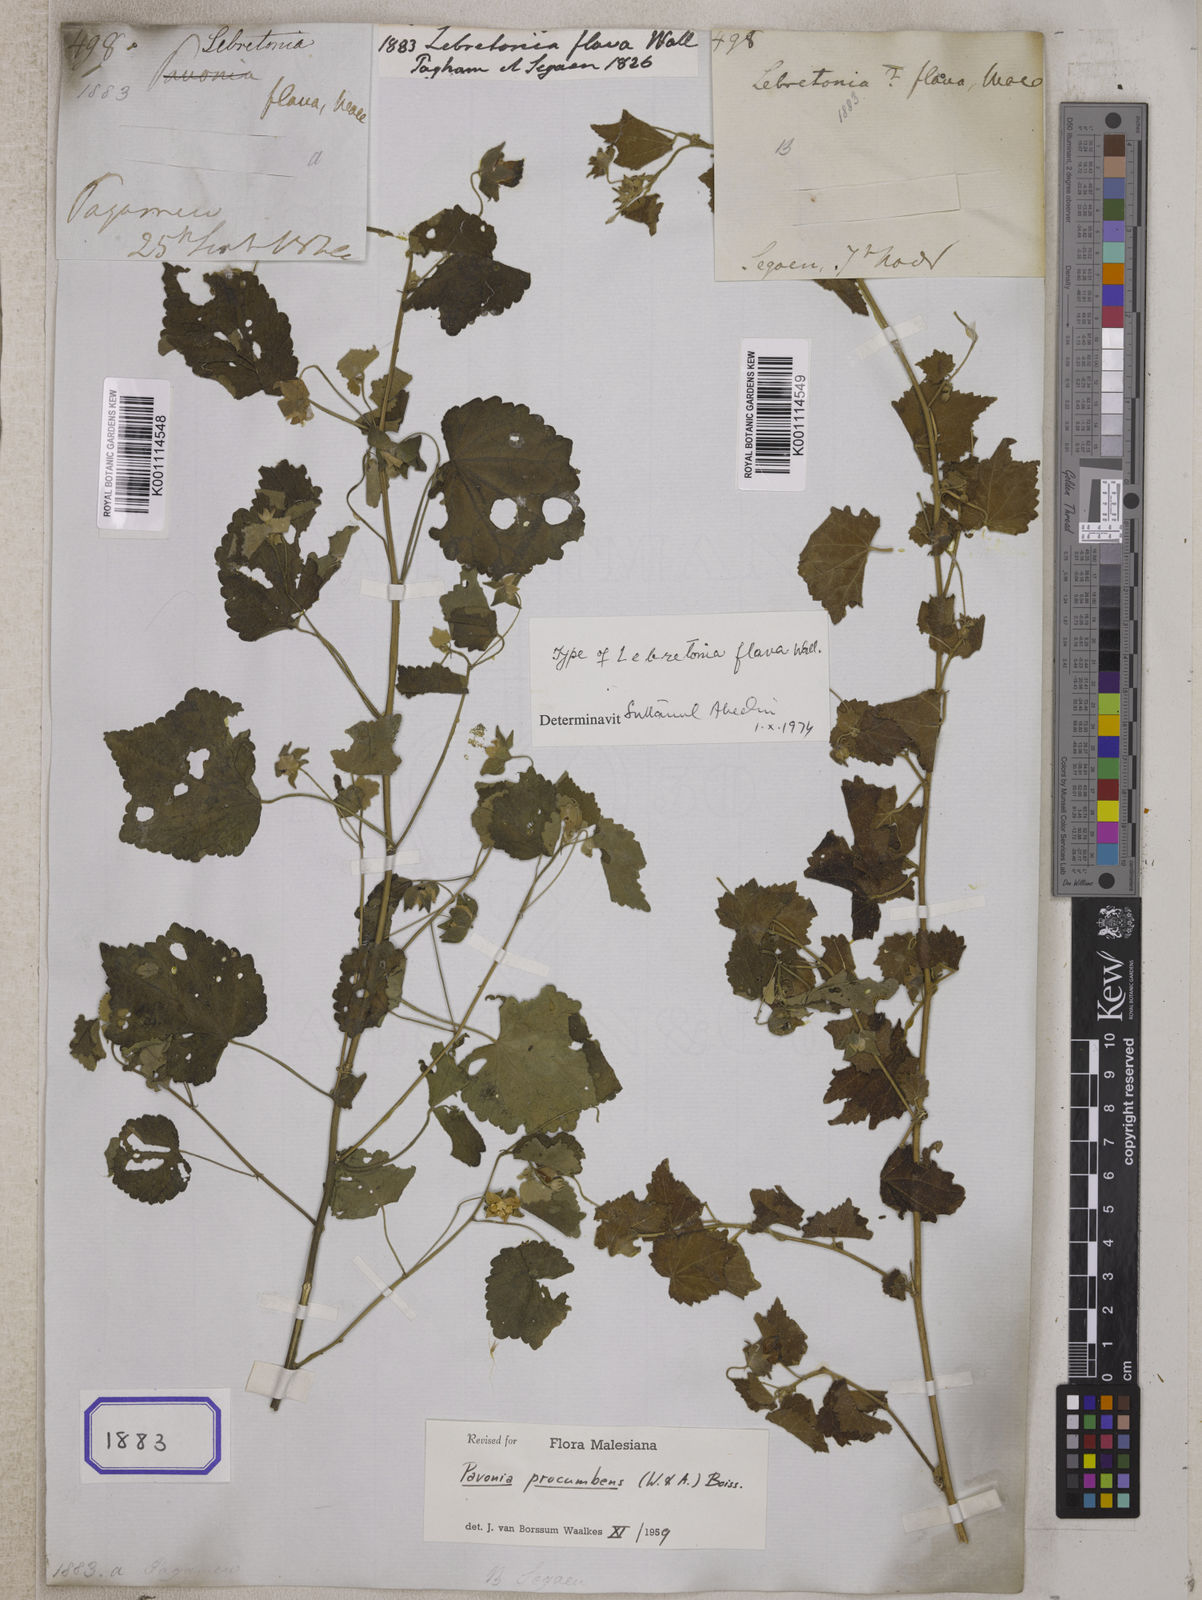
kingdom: Plantae
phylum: Tracheophyta
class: Magnoliopsida
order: Malvales
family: Malvaceae
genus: Pavonia
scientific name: Pavonia flavoferruginea
